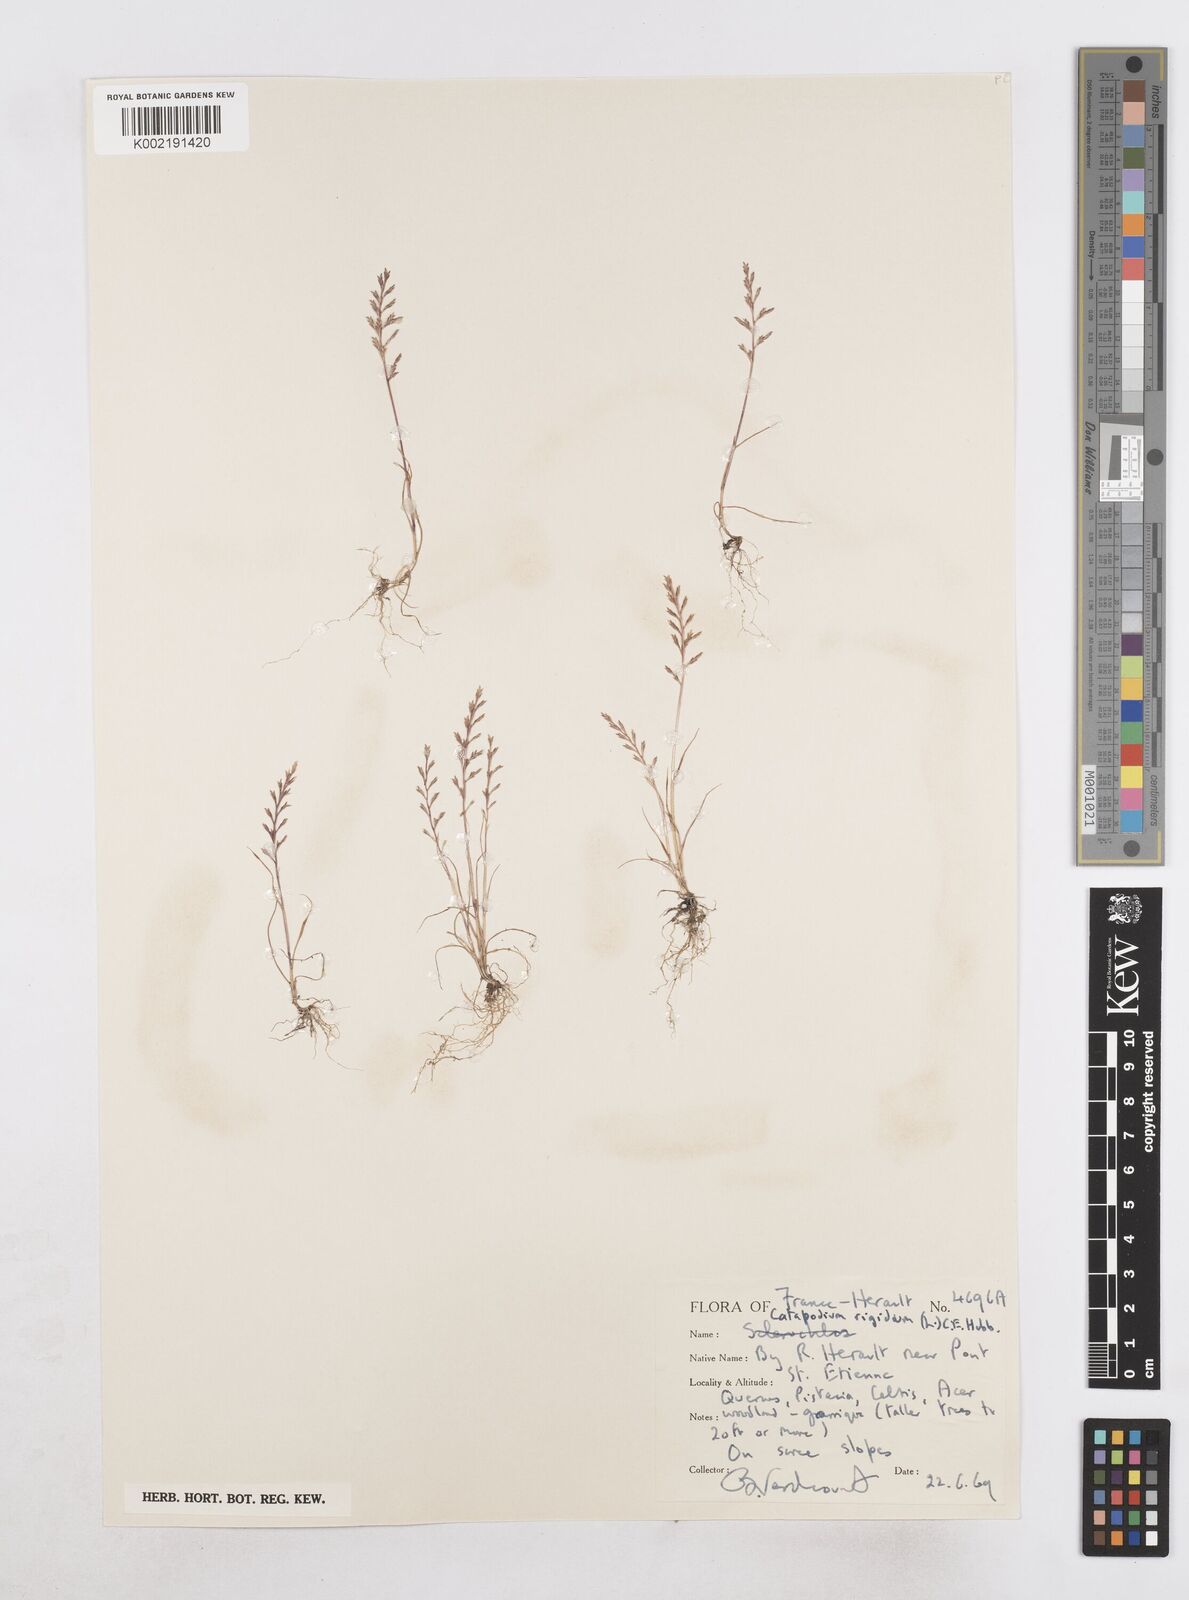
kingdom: Plantae
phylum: Tracheophyta
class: Liliopsida
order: Poales
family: Poaceae
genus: Catapodium
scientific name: Catapodium rigidum
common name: Fern-grass
